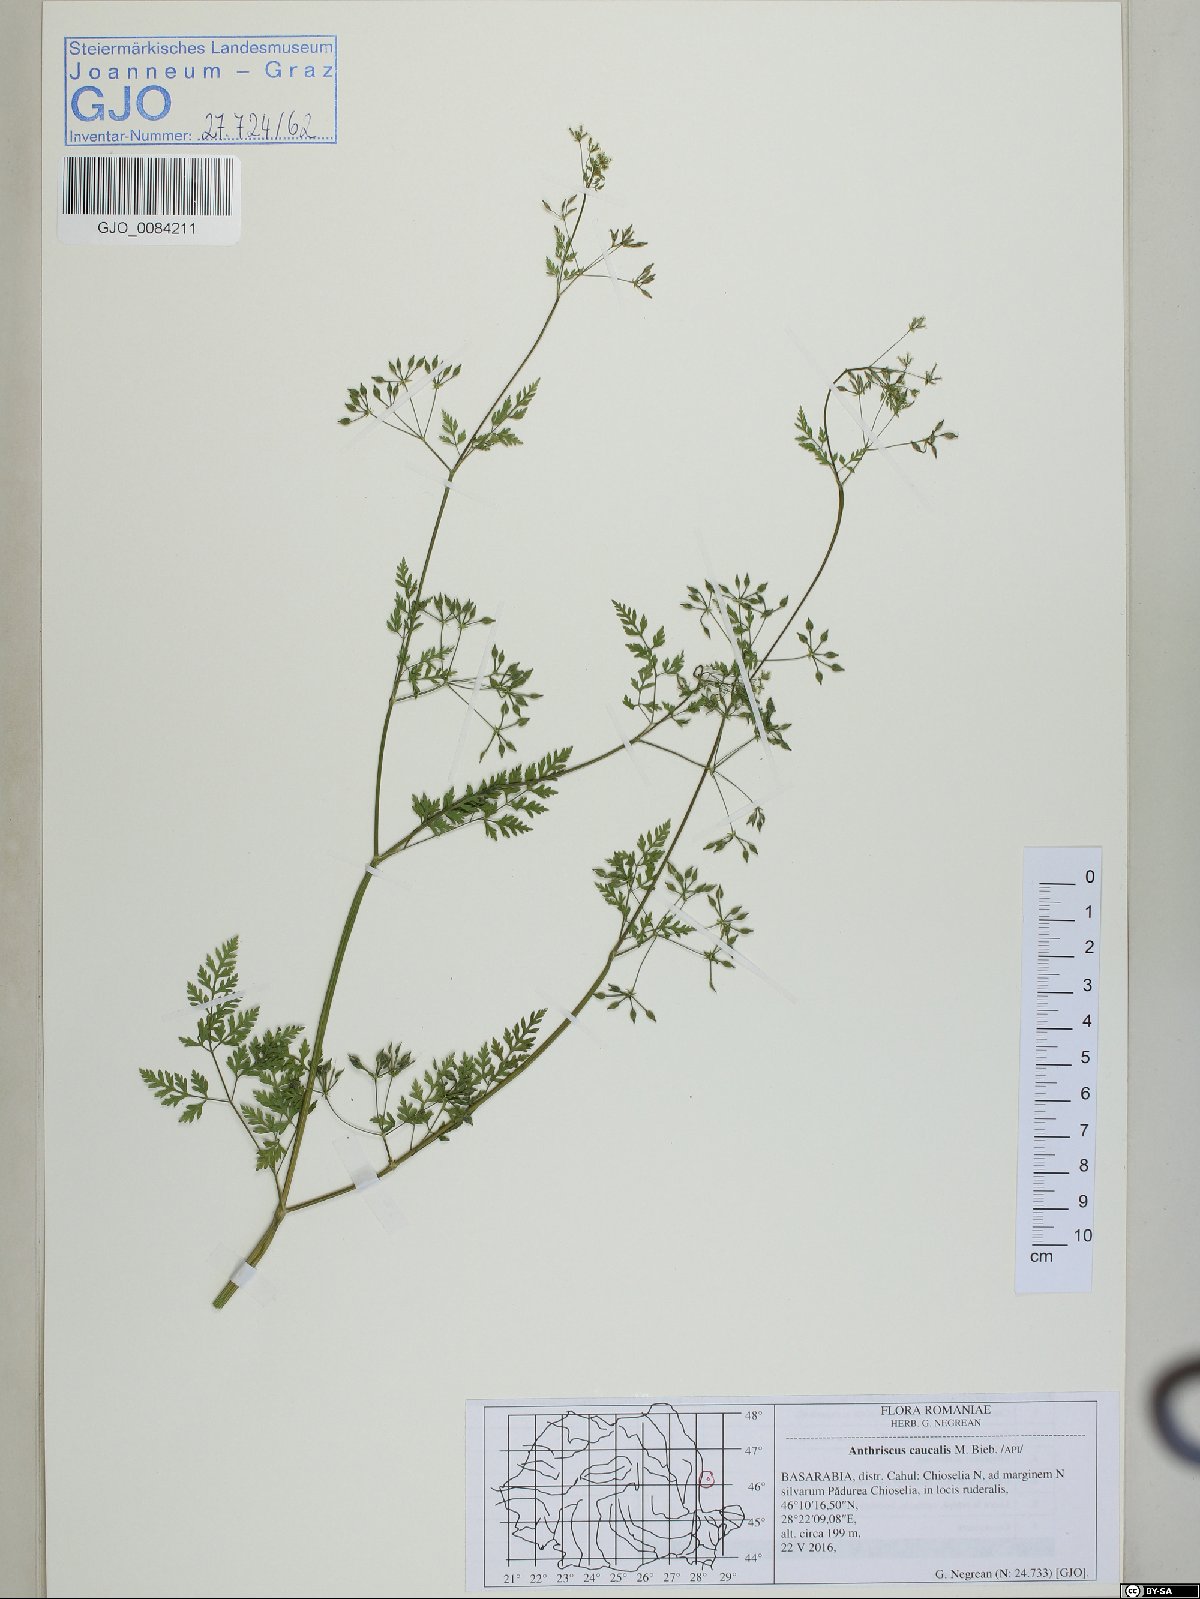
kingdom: Plantae
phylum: Tracheophyta
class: Magnoliopsida
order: Apiales
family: Apiaceae
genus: Anthriscus
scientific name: Anthriscus caucalis
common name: Bur chervil
